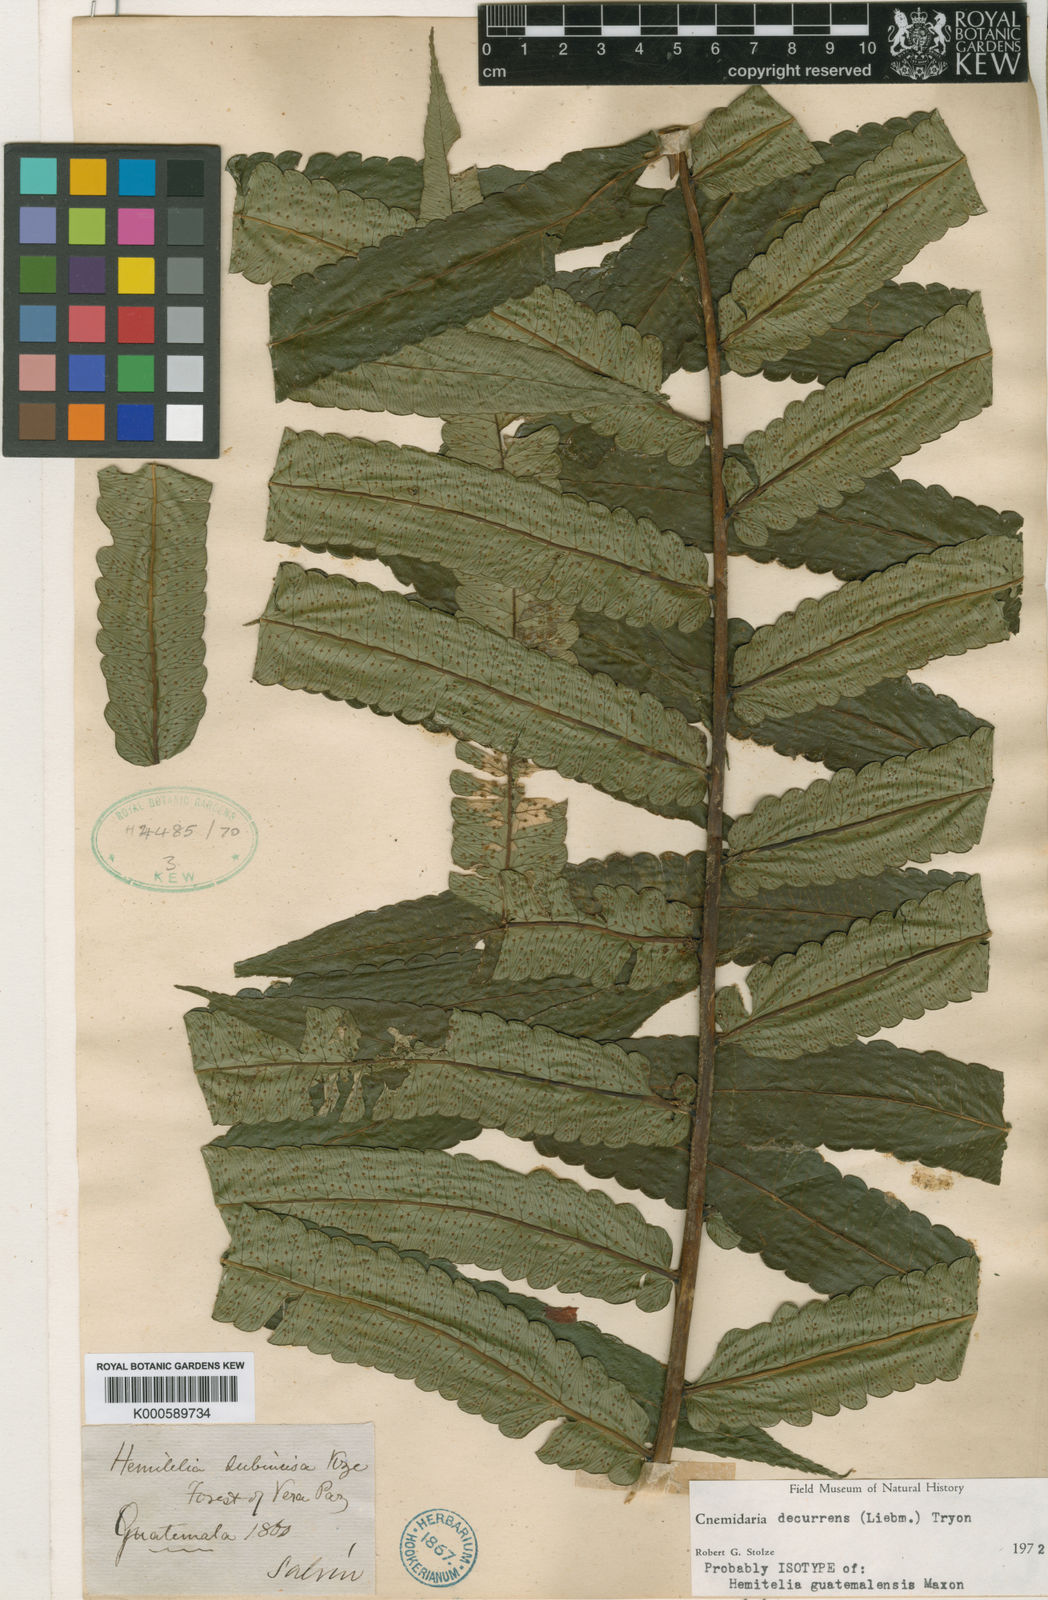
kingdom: Plantae
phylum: Tracheophyta
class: Polypodiopsida
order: Cyatheales
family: Cyatheaceae
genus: Cyathea
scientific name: Cyathea decurrens
